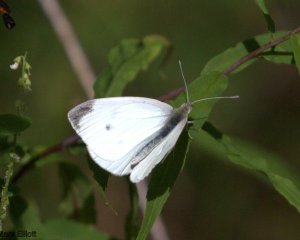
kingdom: Animalia
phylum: Arthropoda
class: Insecta
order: Lepidoptera
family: Pieridae
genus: Pieris
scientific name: Pieris rapae
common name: Cabbage White
